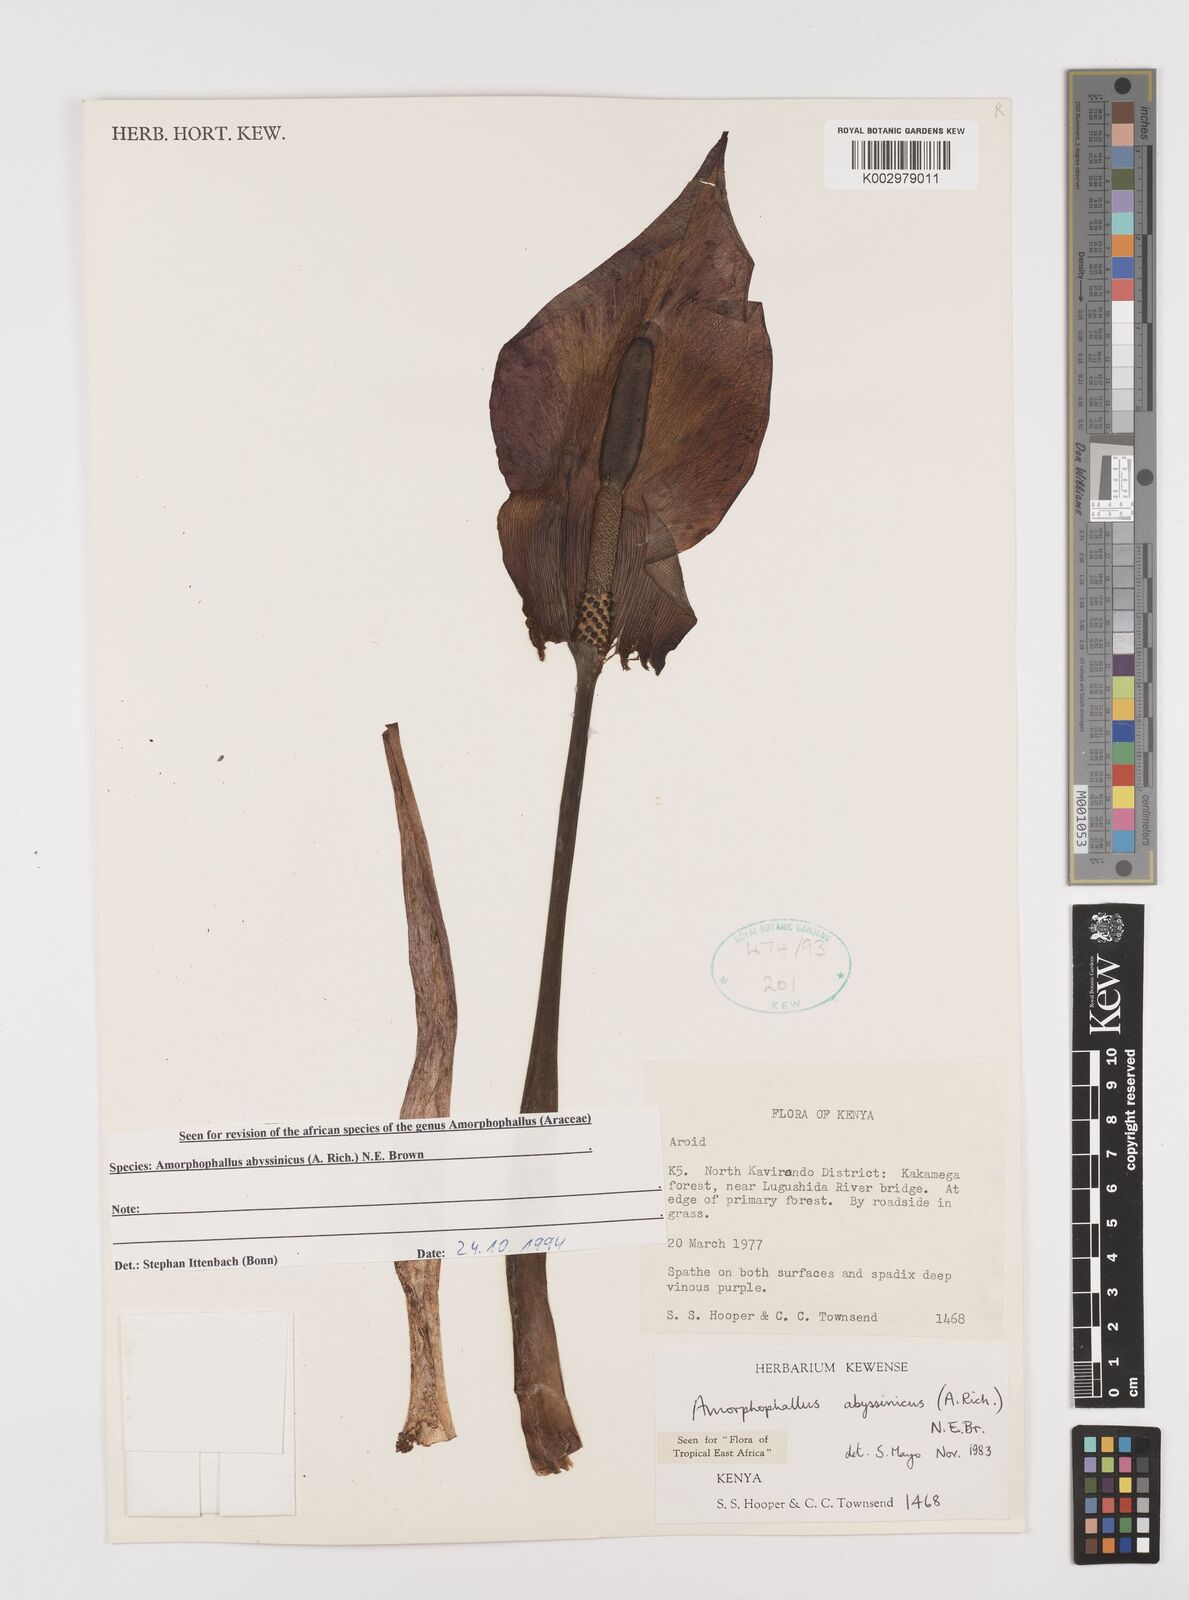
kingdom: Plantae
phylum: Tracheophyta
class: Liliopsida
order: Alismatales
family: Araceae
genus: Amorphophallus
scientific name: Amorphophallus abyssinicus
